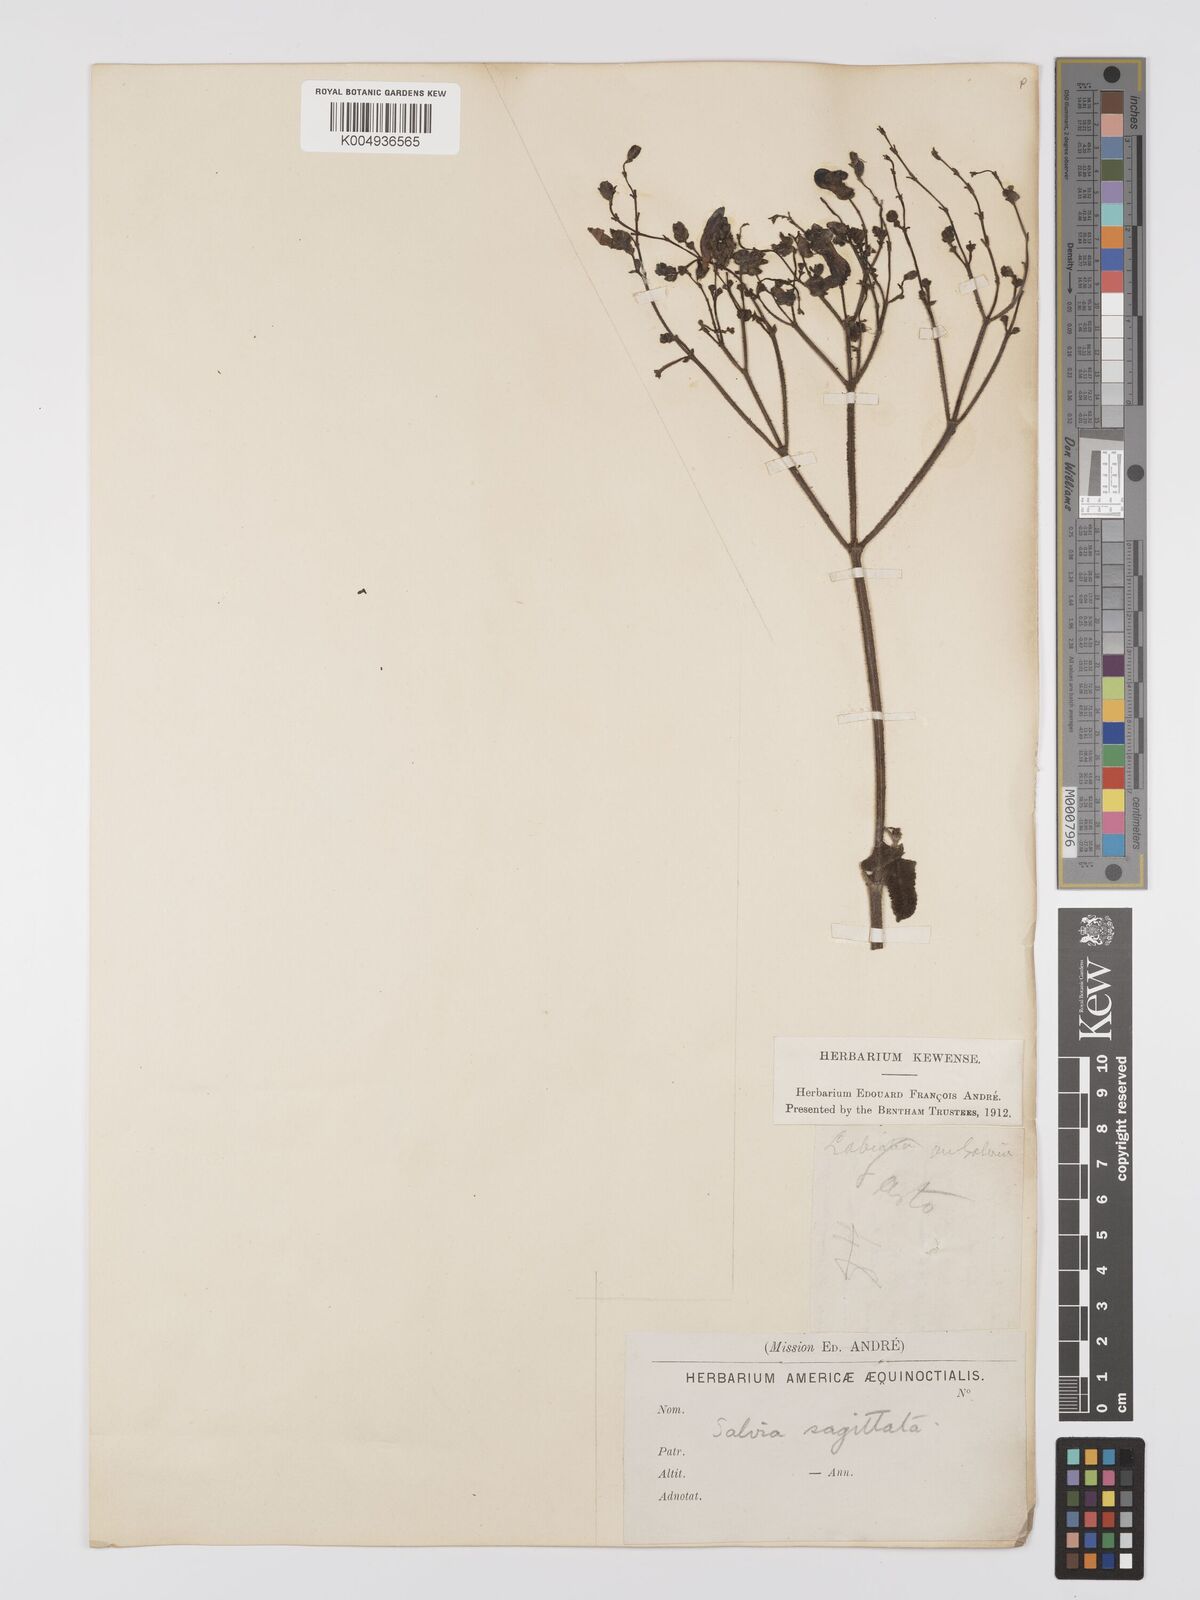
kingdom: Plantae
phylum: Tracheophyta
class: Magnoliopsida
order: Lamiales
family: Lamiaceae
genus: Salvia
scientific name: Salvia sagittata
